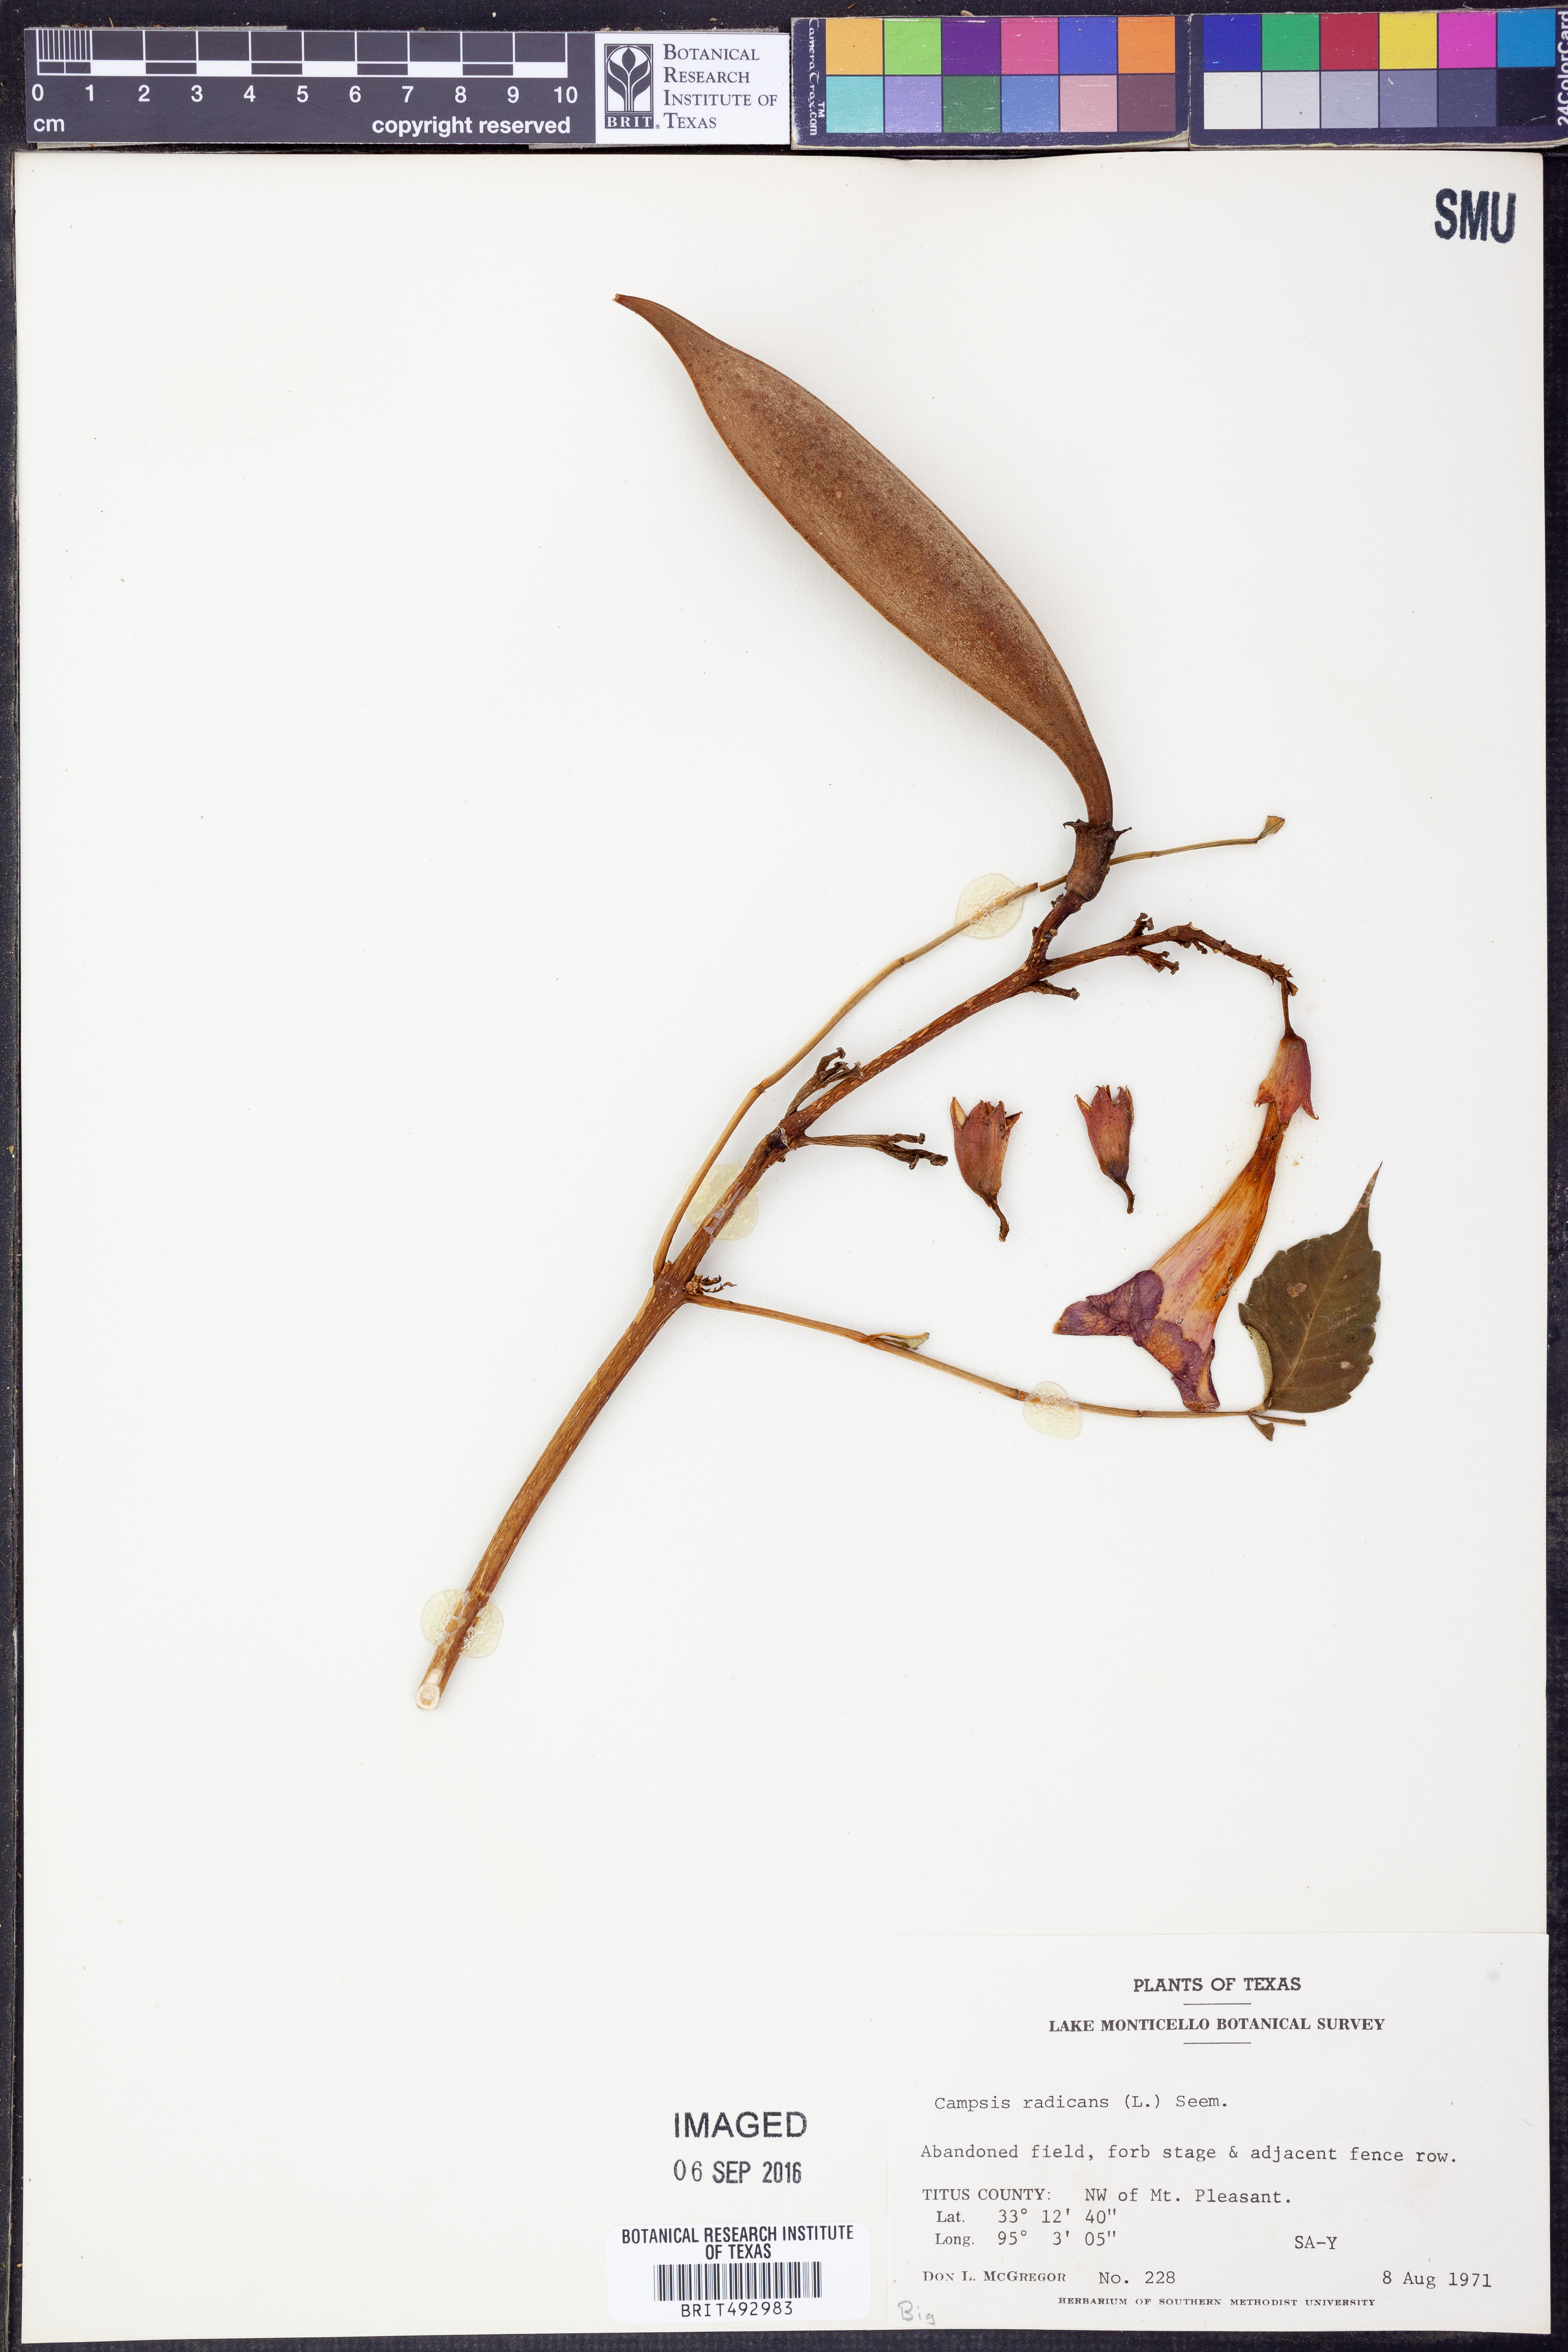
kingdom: Plantae
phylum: Tracheophyta
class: Magnoliopsida
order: Lamiales
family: Bignoniaceae
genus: Campsis
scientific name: Campsis radicans
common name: Trumpet-creeper
